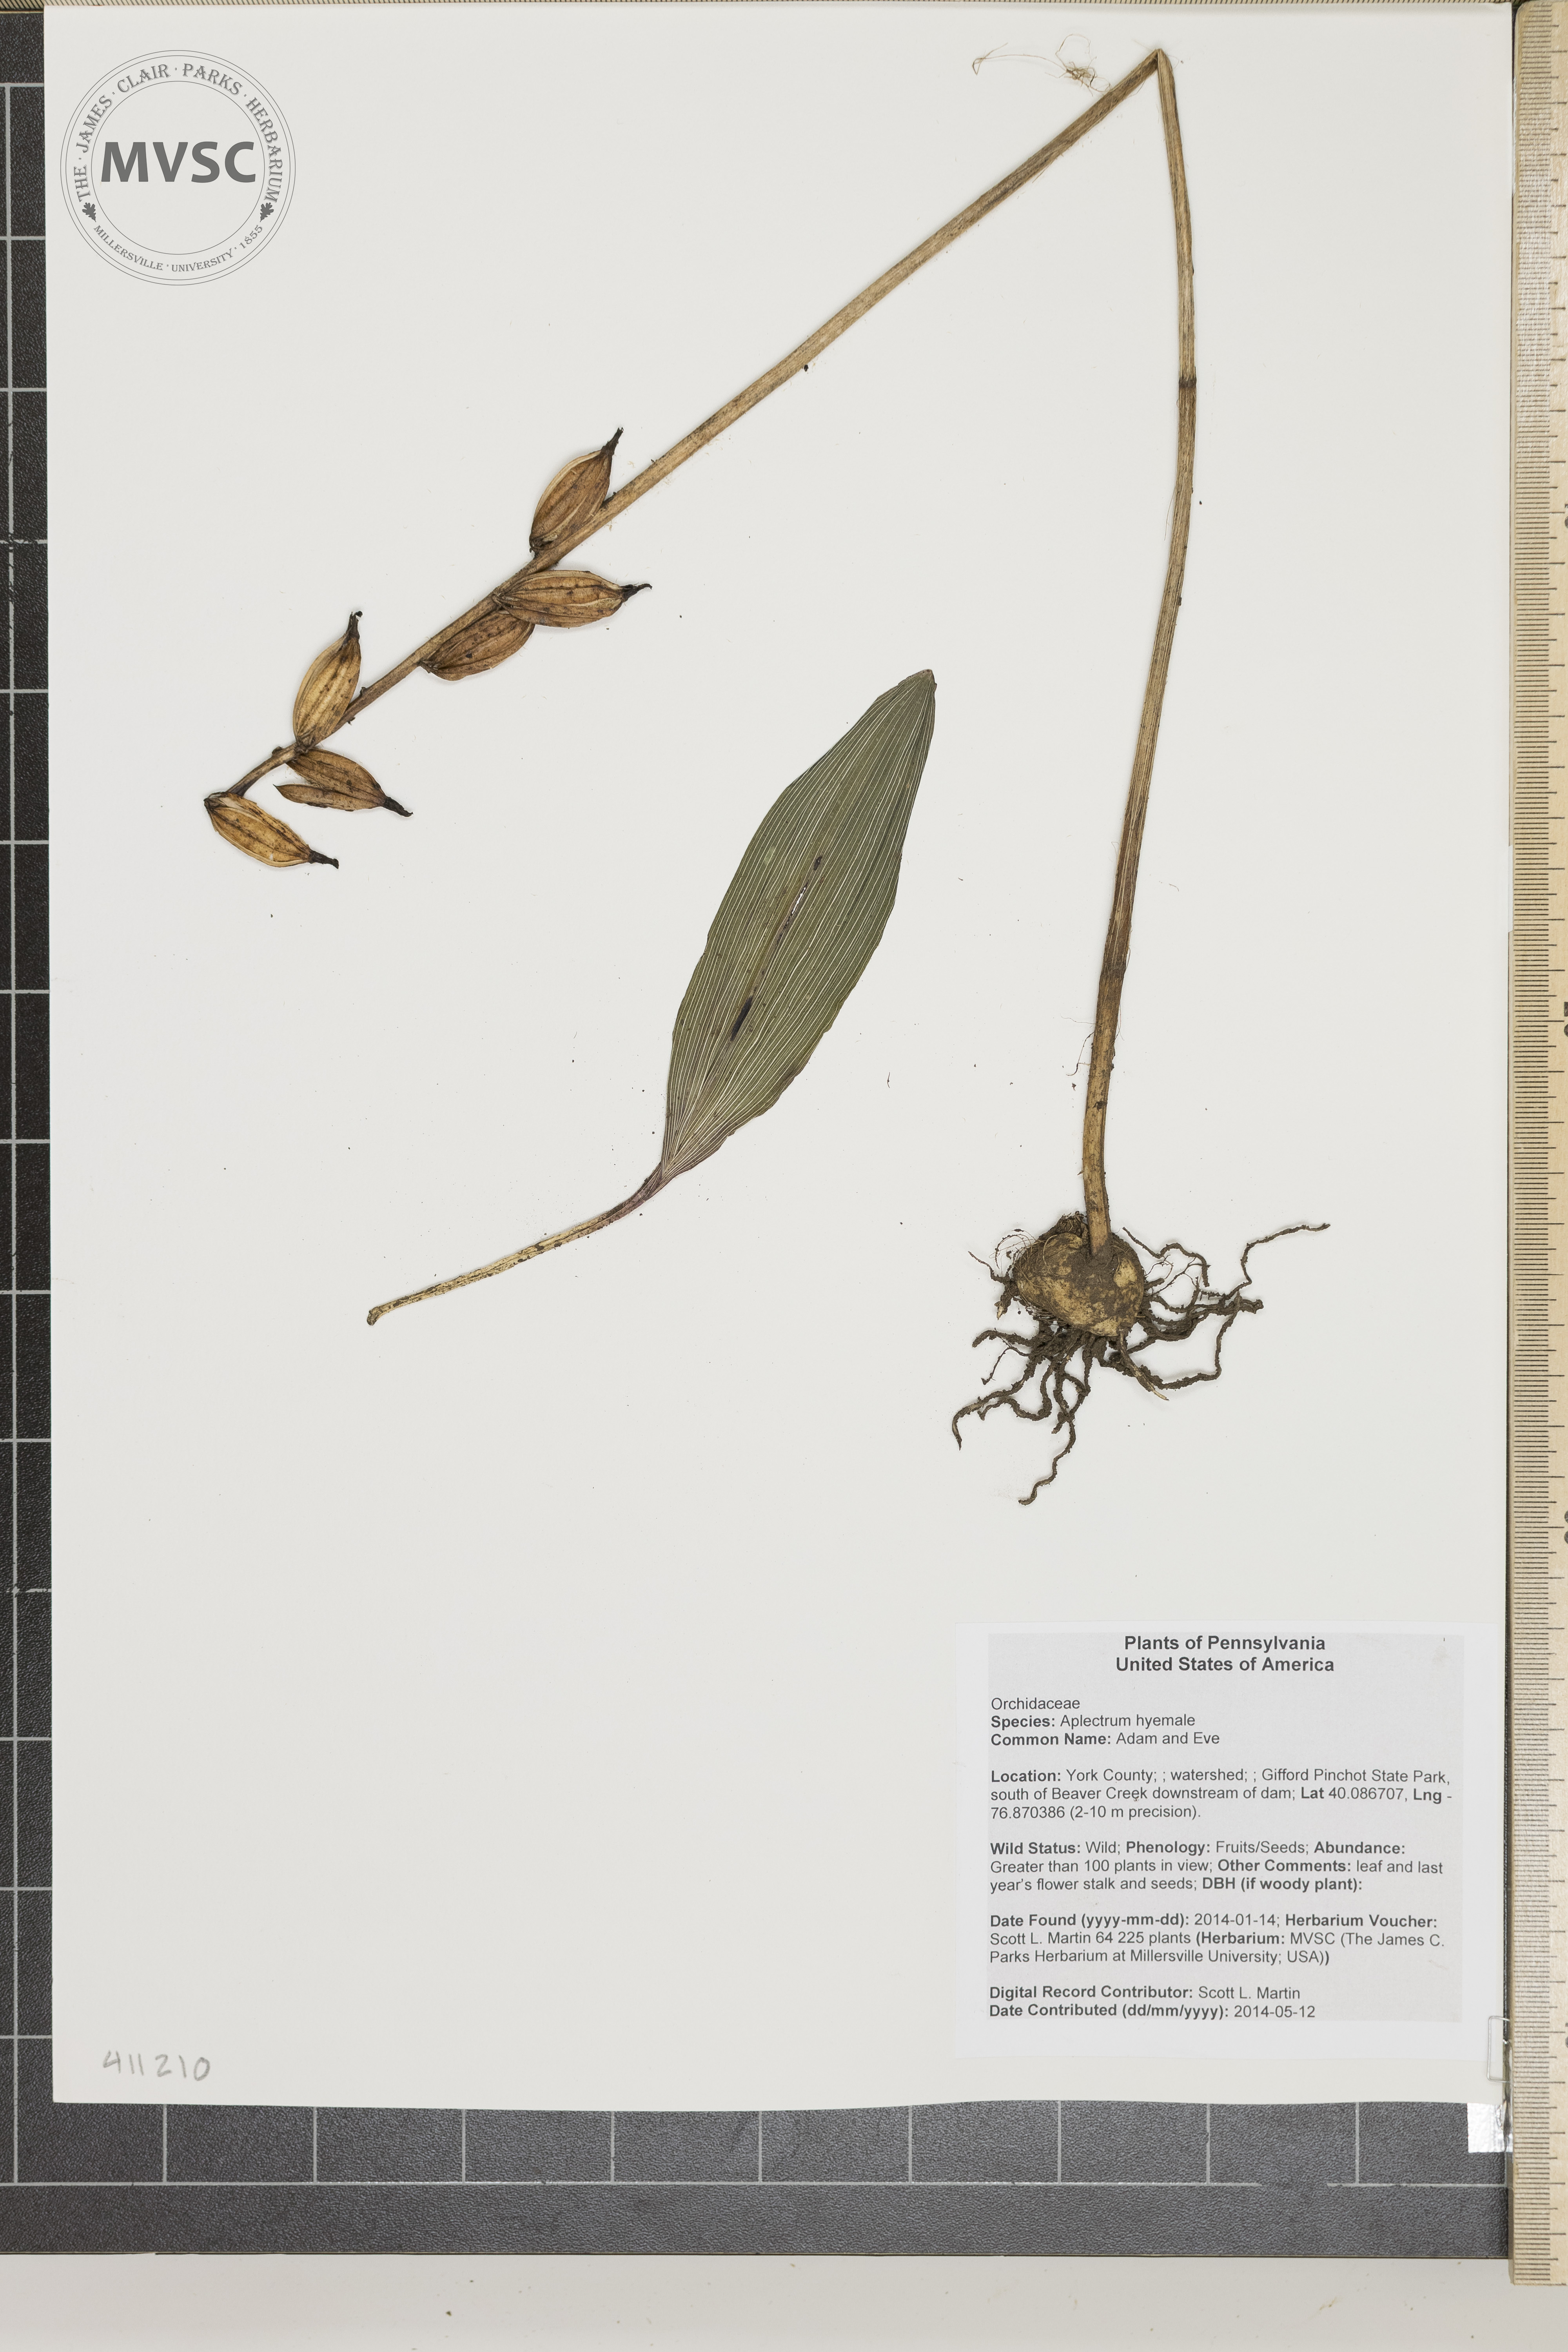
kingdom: Plantae
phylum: Tracheophyta
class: Liliopsida
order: Asparagales
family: Orchidaceae
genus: Aplectrum
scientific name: Aplectrum hyemale
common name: Adam and Eve
